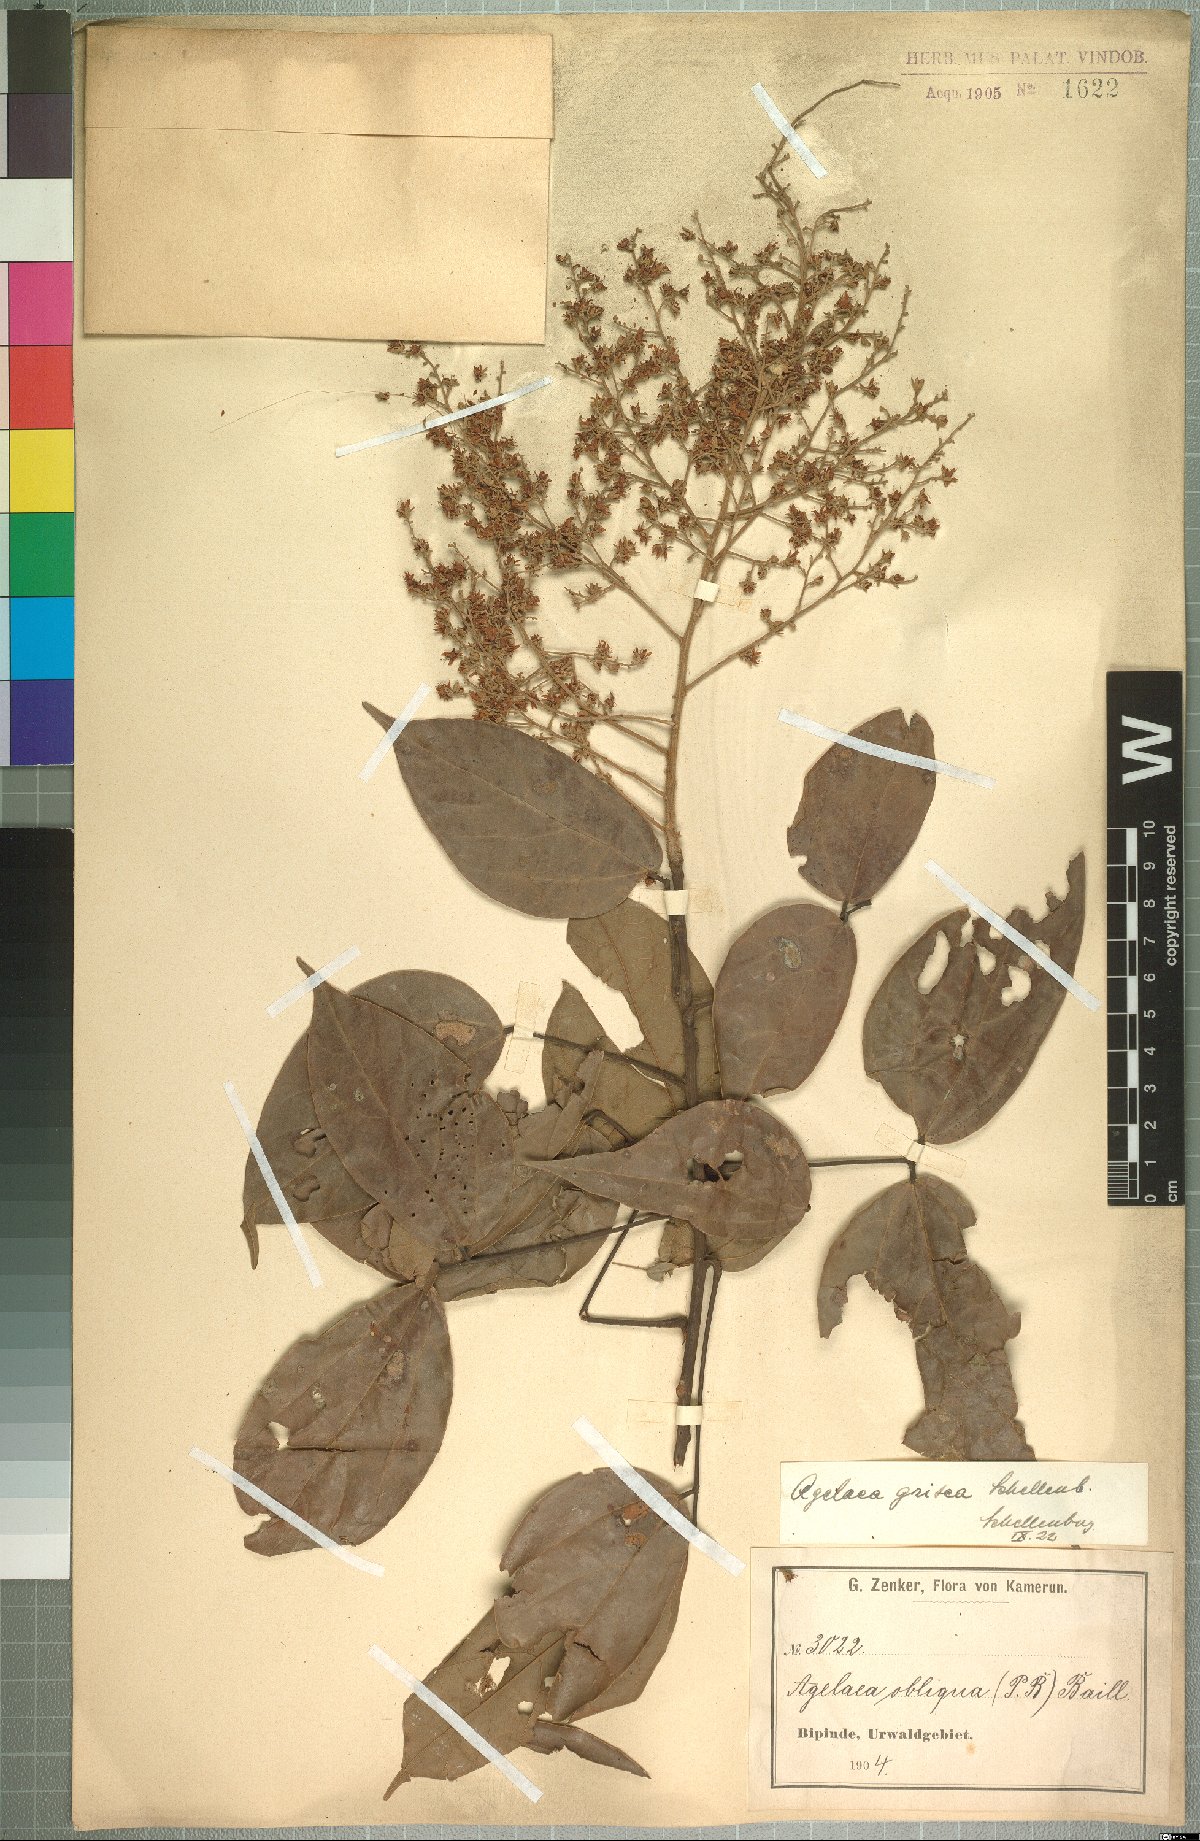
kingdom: Plantae
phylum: Tracheophyta
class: Magnoliopsida
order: Oxalidales
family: Connaraceae
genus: Agelaea
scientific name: Agelaea pentagyna
